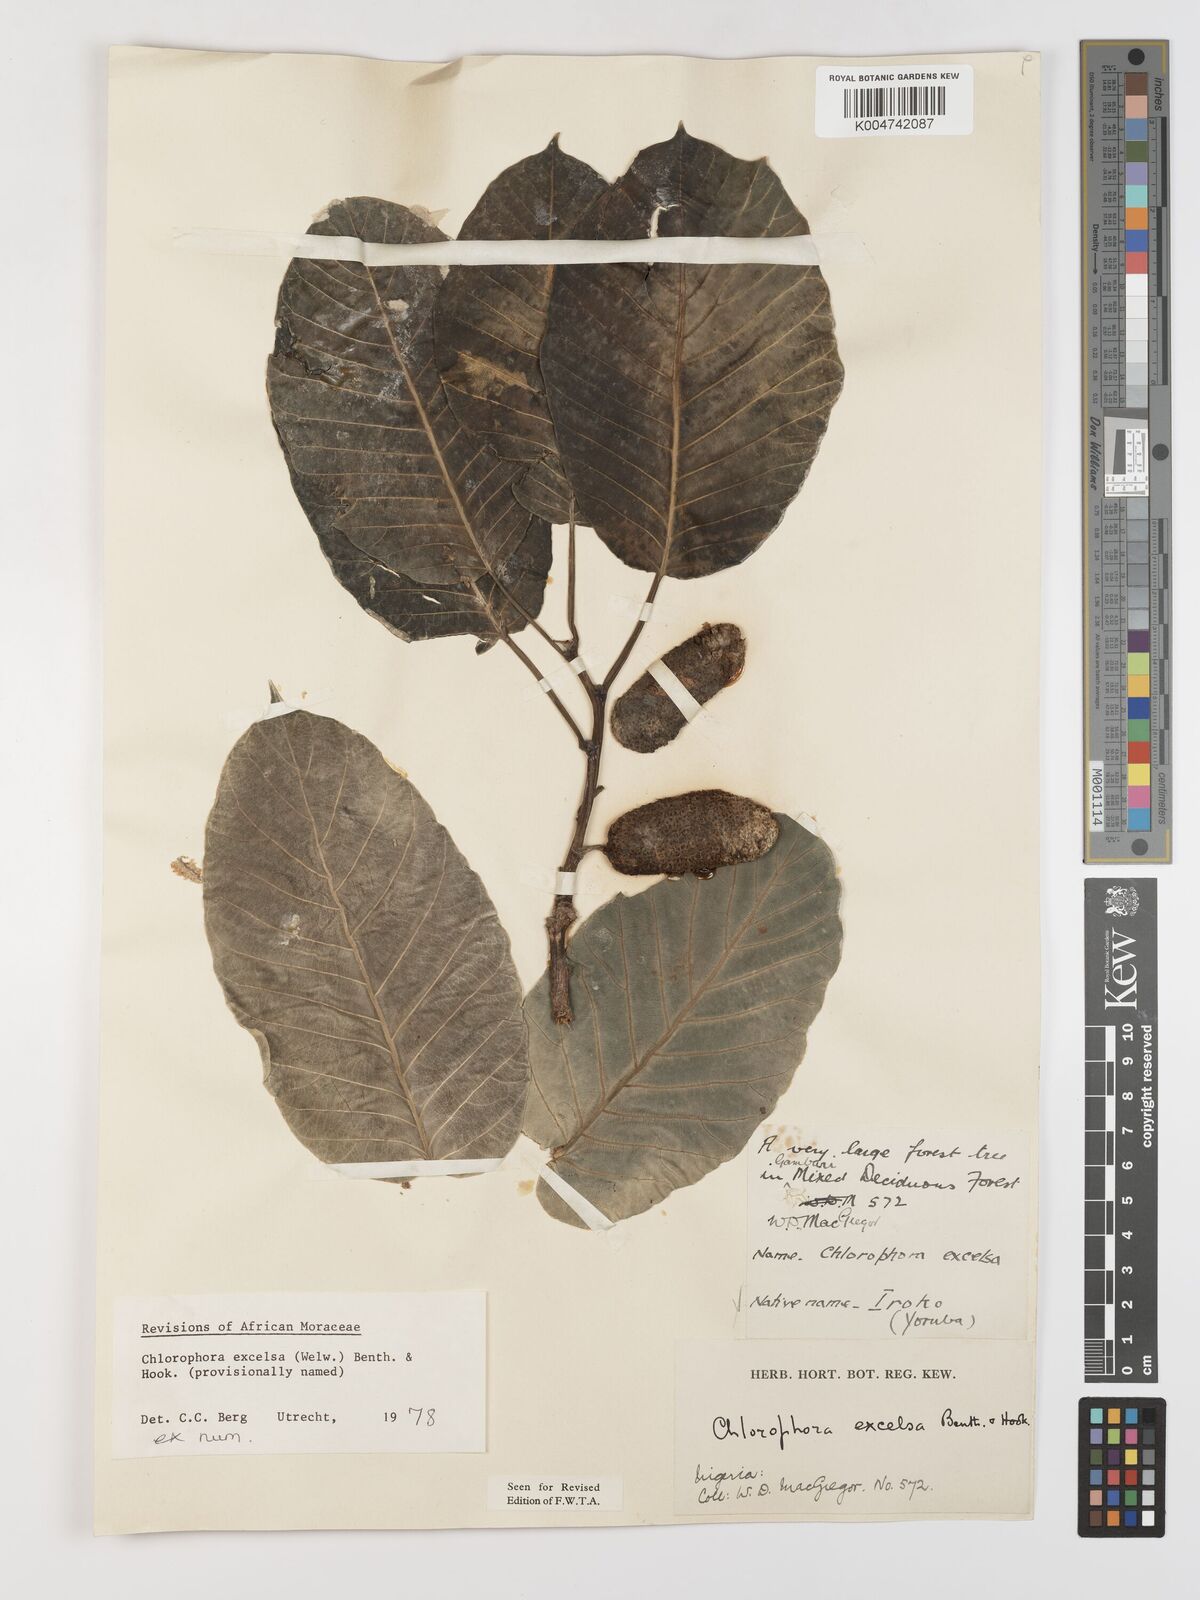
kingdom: Plantae
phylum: Tracheophyta
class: Magnoliopsida
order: Rosales
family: Moraceae
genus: Milicia
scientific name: Milicia excelsa
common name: African teak
